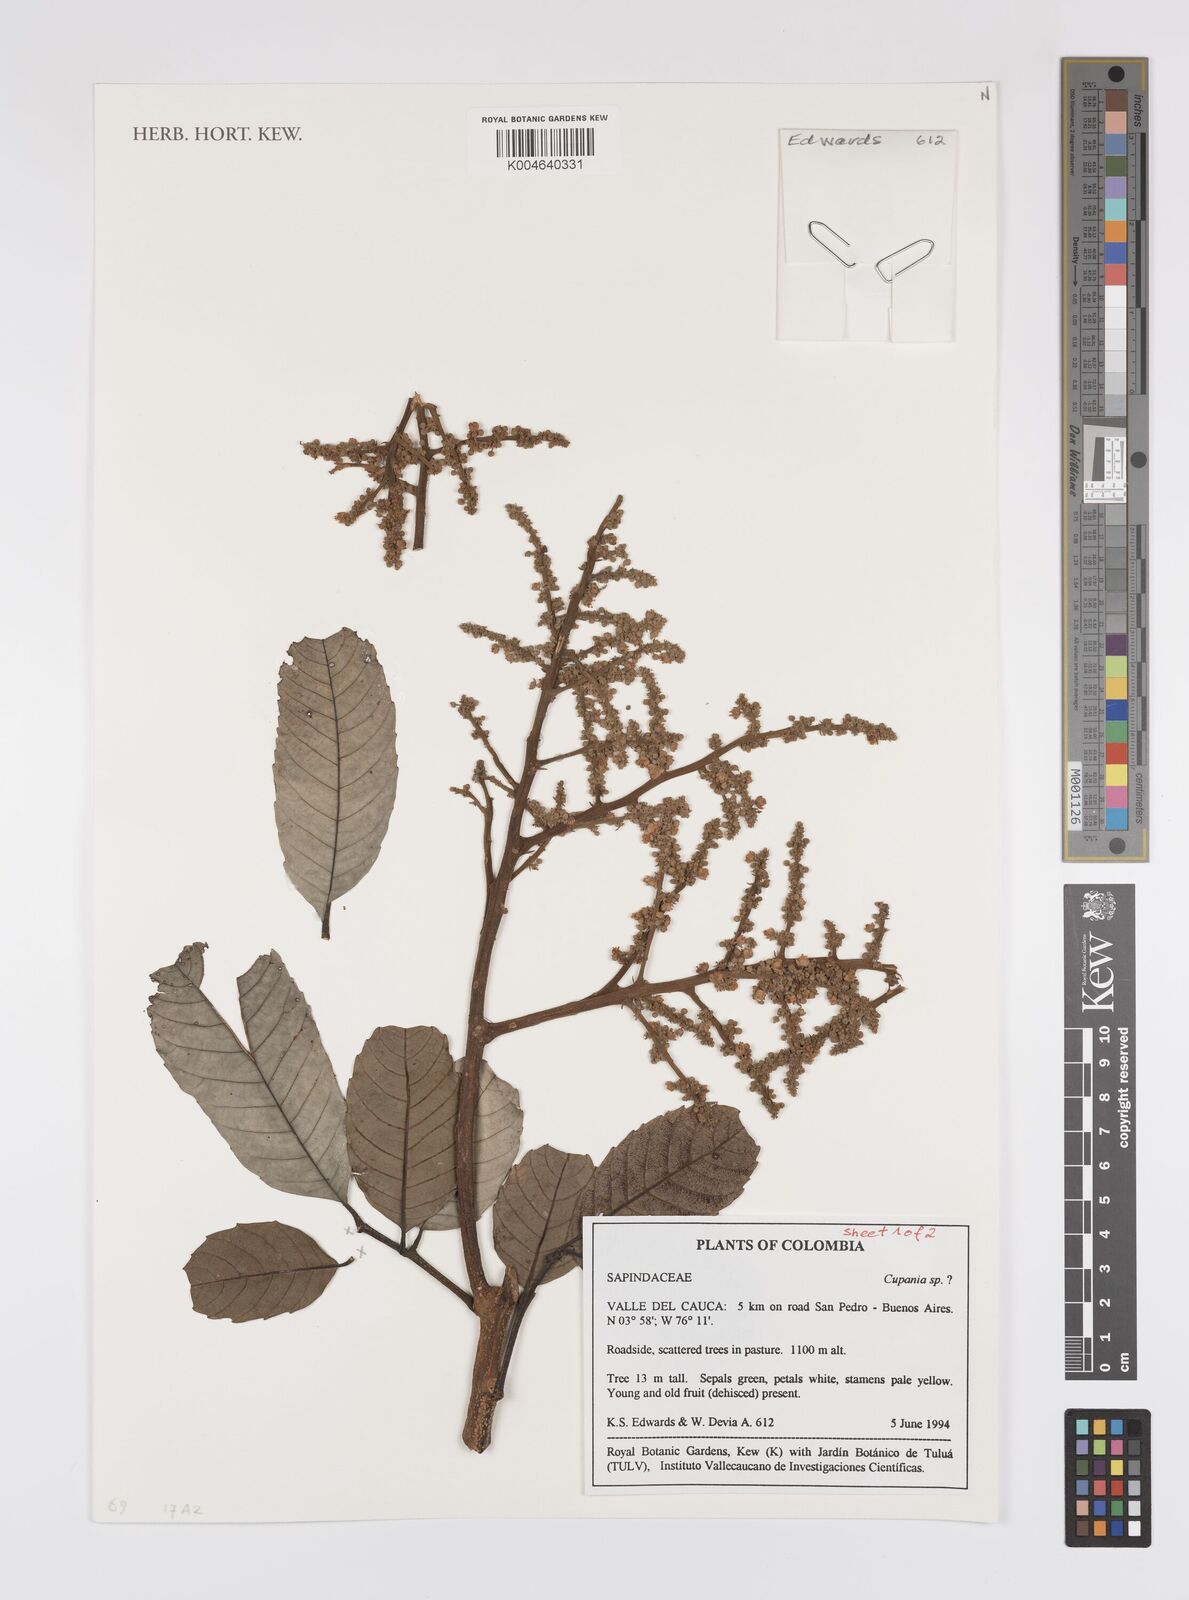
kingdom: Plantae
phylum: Tracheophyta
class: Magnoliopsida
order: Sapindales
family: Sapindaceae
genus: Cupania
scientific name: Cupania
